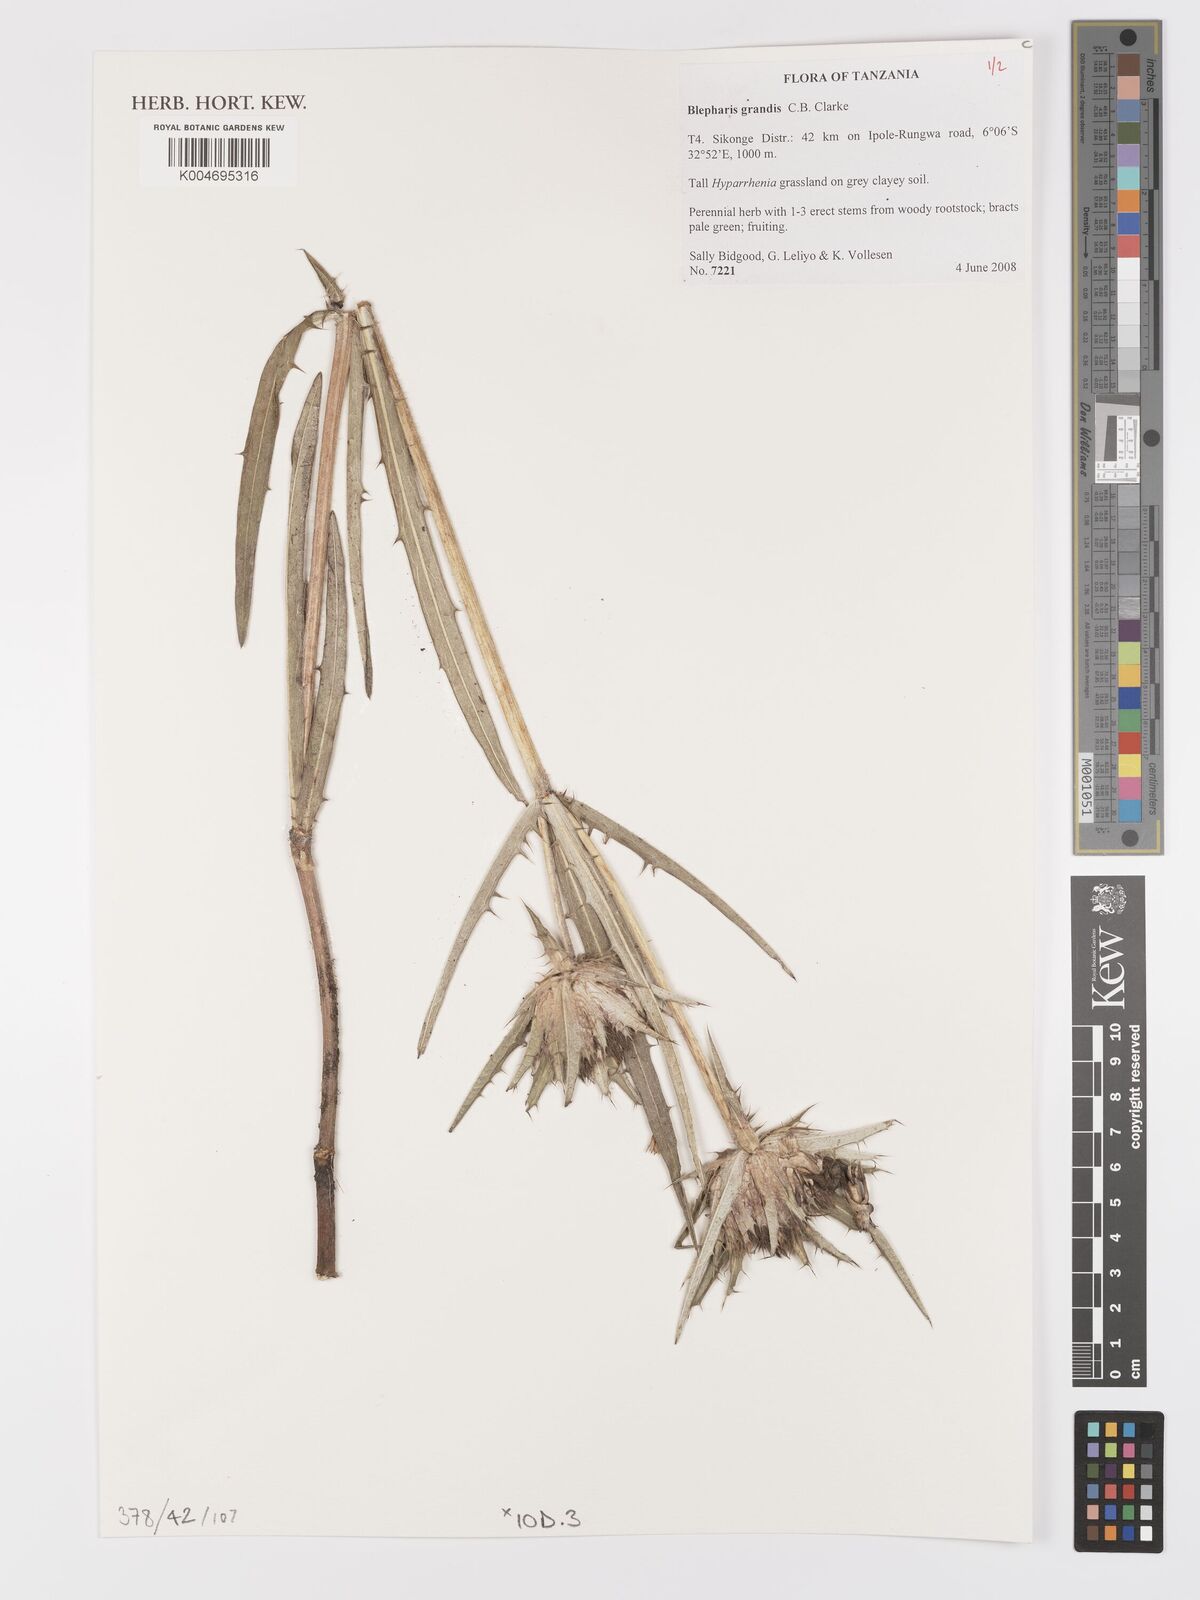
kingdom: Plantae
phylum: Tracheophyta
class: Magnoliopsida
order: Lamiales
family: Acanthaceae
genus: Blepharis
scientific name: Blepharis grandis
